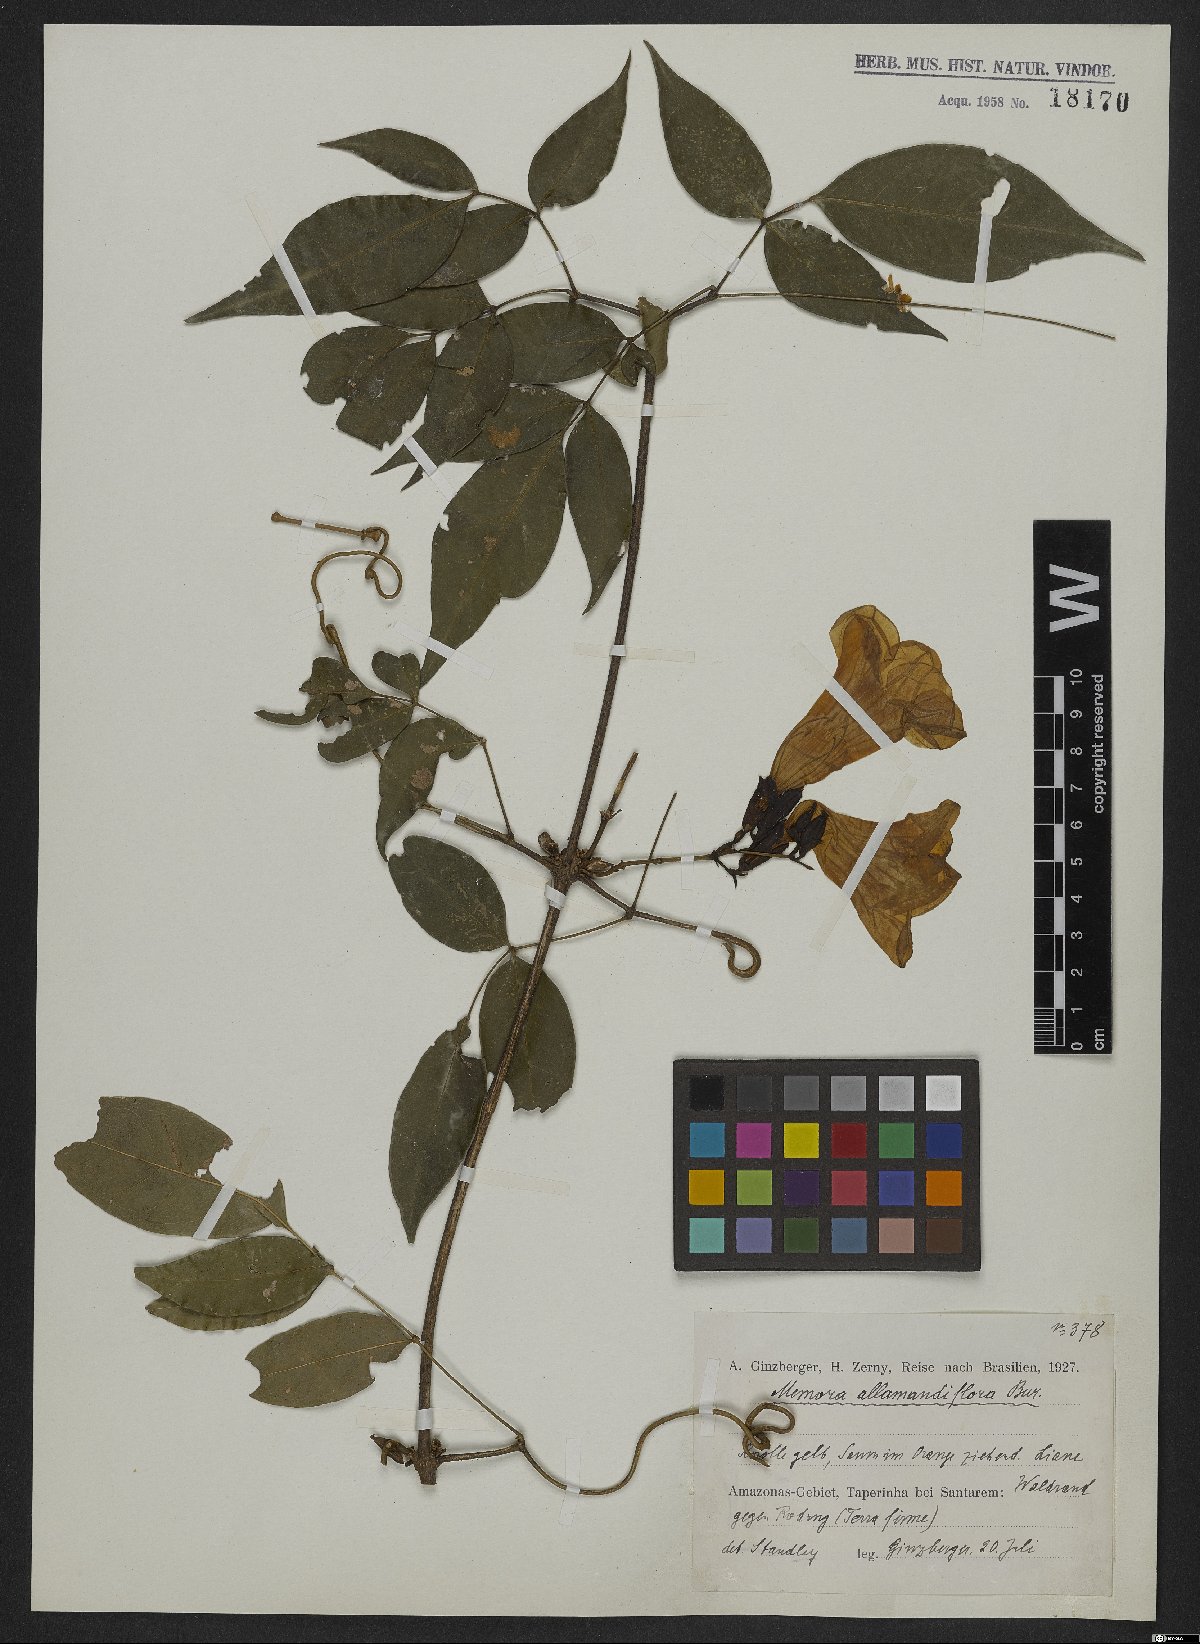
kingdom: Plantae
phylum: Tracheophyta
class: Magnoliopsida
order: Lamiales
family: Bignoniaceae
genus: Adenocalymma
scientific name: Adenocalymma allamandiflorum
